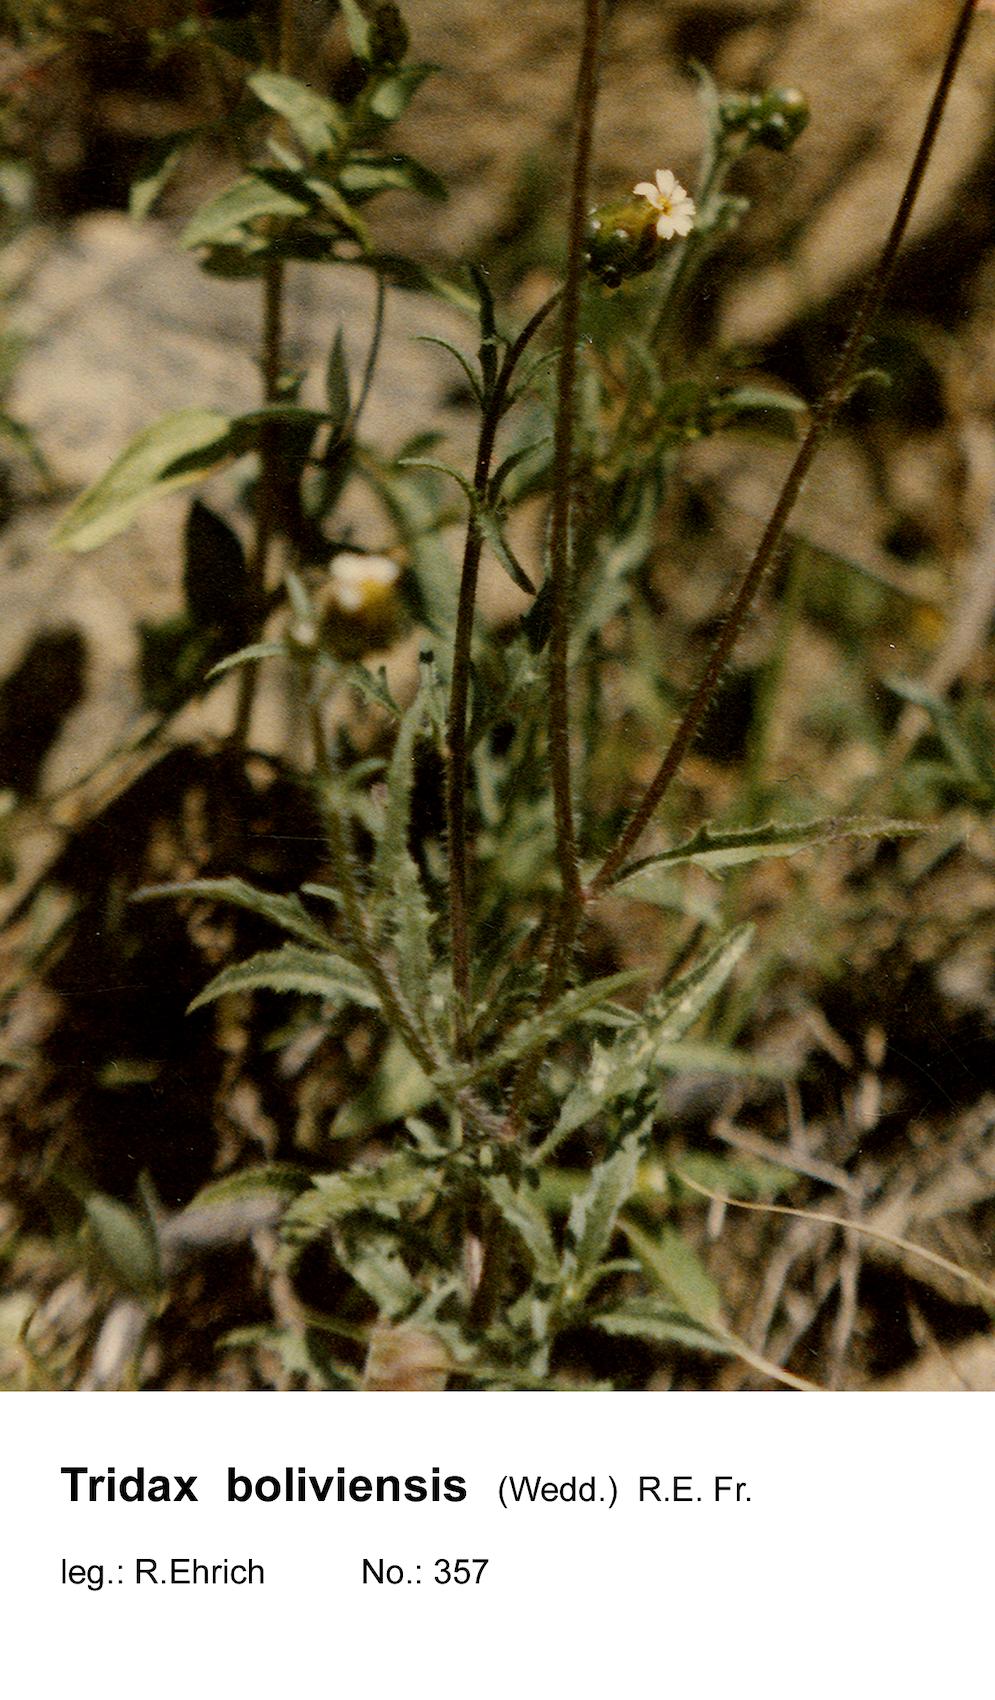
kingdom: Plantae
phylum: Tracheophyta
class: Magnoliopsida
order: Asterales
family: Asteraceae
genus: Tridax
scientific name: Tridax boliviensis
